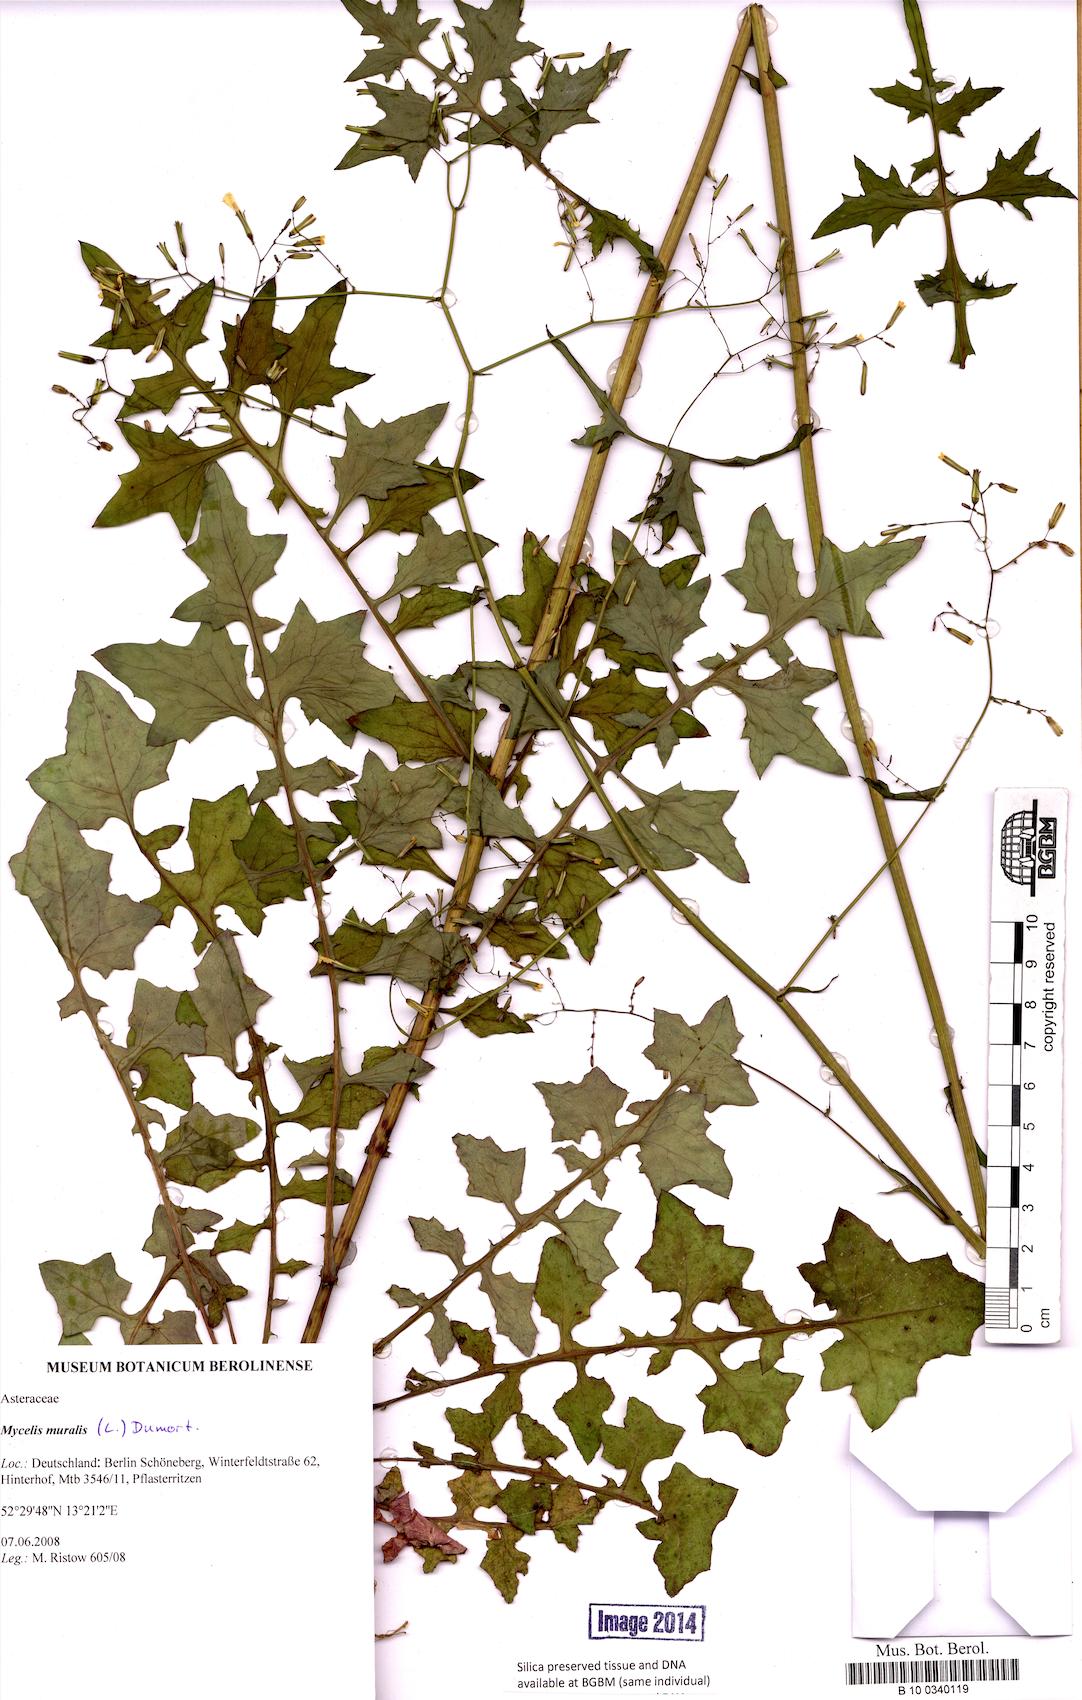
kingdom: Plantae
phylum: Tracheophyta
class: Magnoliopsida
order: Asterales
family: Asteraceae
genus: Mycelis
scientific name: Mycelis muralis
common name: Wall lettuce
